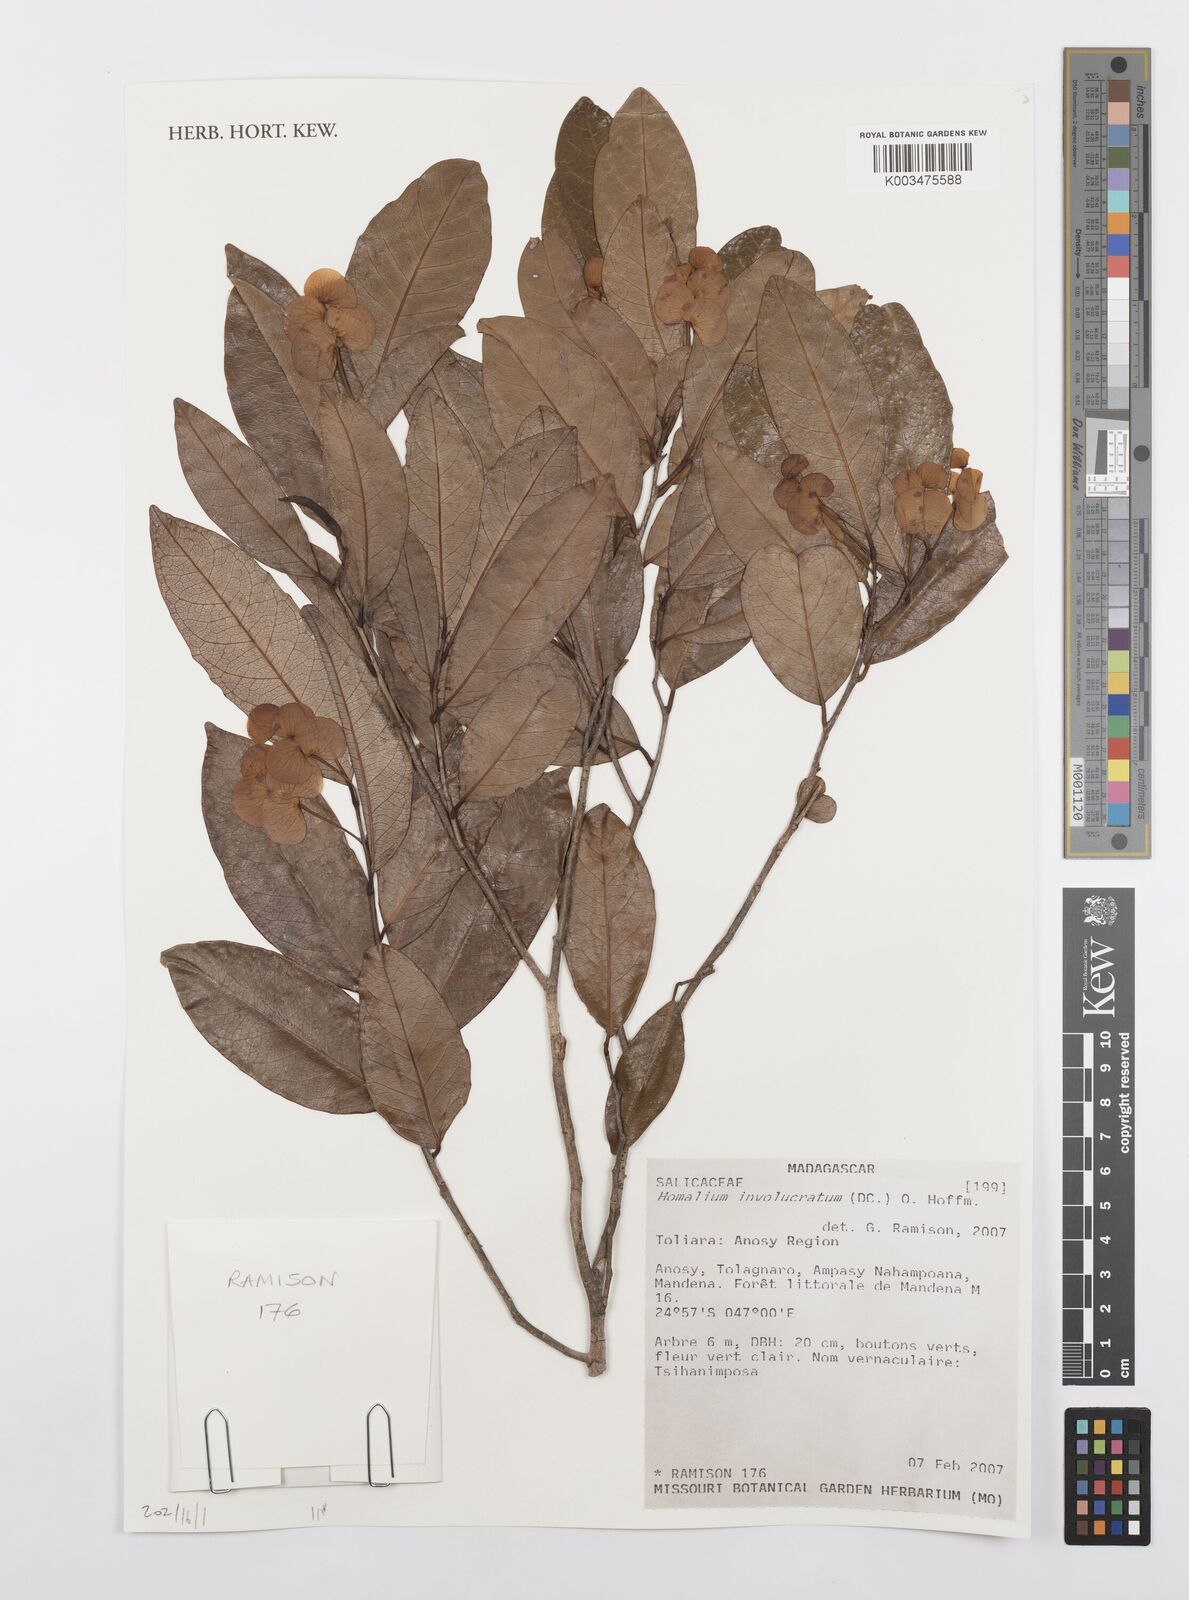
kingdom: Plantae
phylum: Tracheophyta
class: Magnoliopsida
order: Malpighiales
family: Salicaceae
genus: Homalium
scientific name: Homalium involucratum
